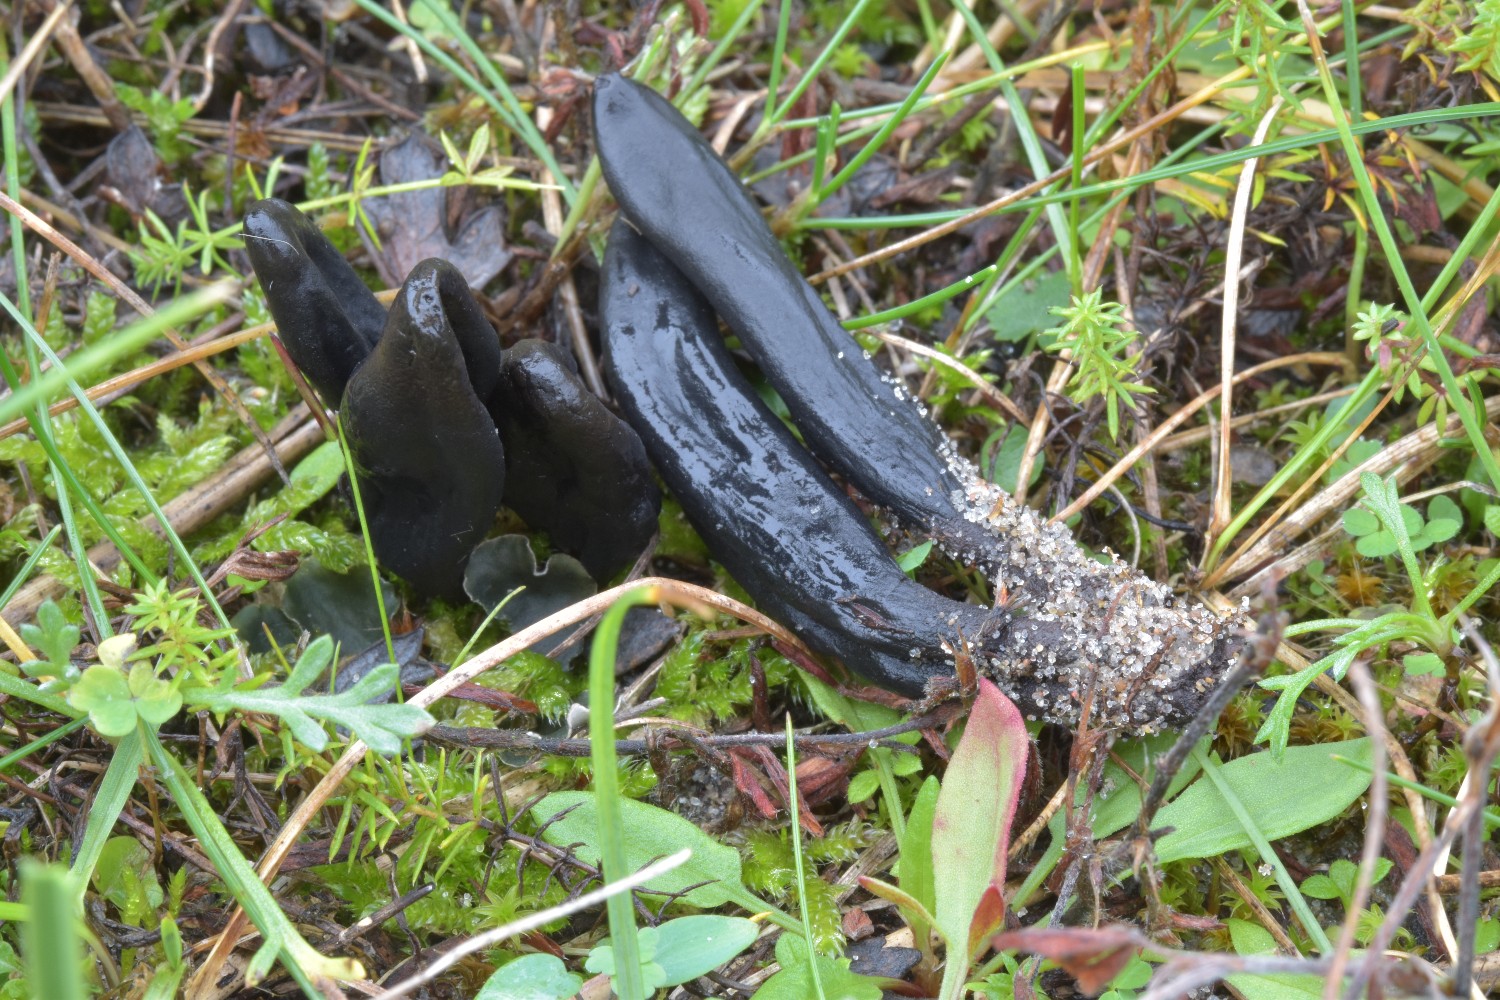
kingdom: Fungi
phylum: Ascomycota
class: Geoglossomycetes
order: Geoglossales
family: Geoglossaceae
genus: Geoglossum
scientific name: Geoglossum cookeianum
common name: bred jordtunge
